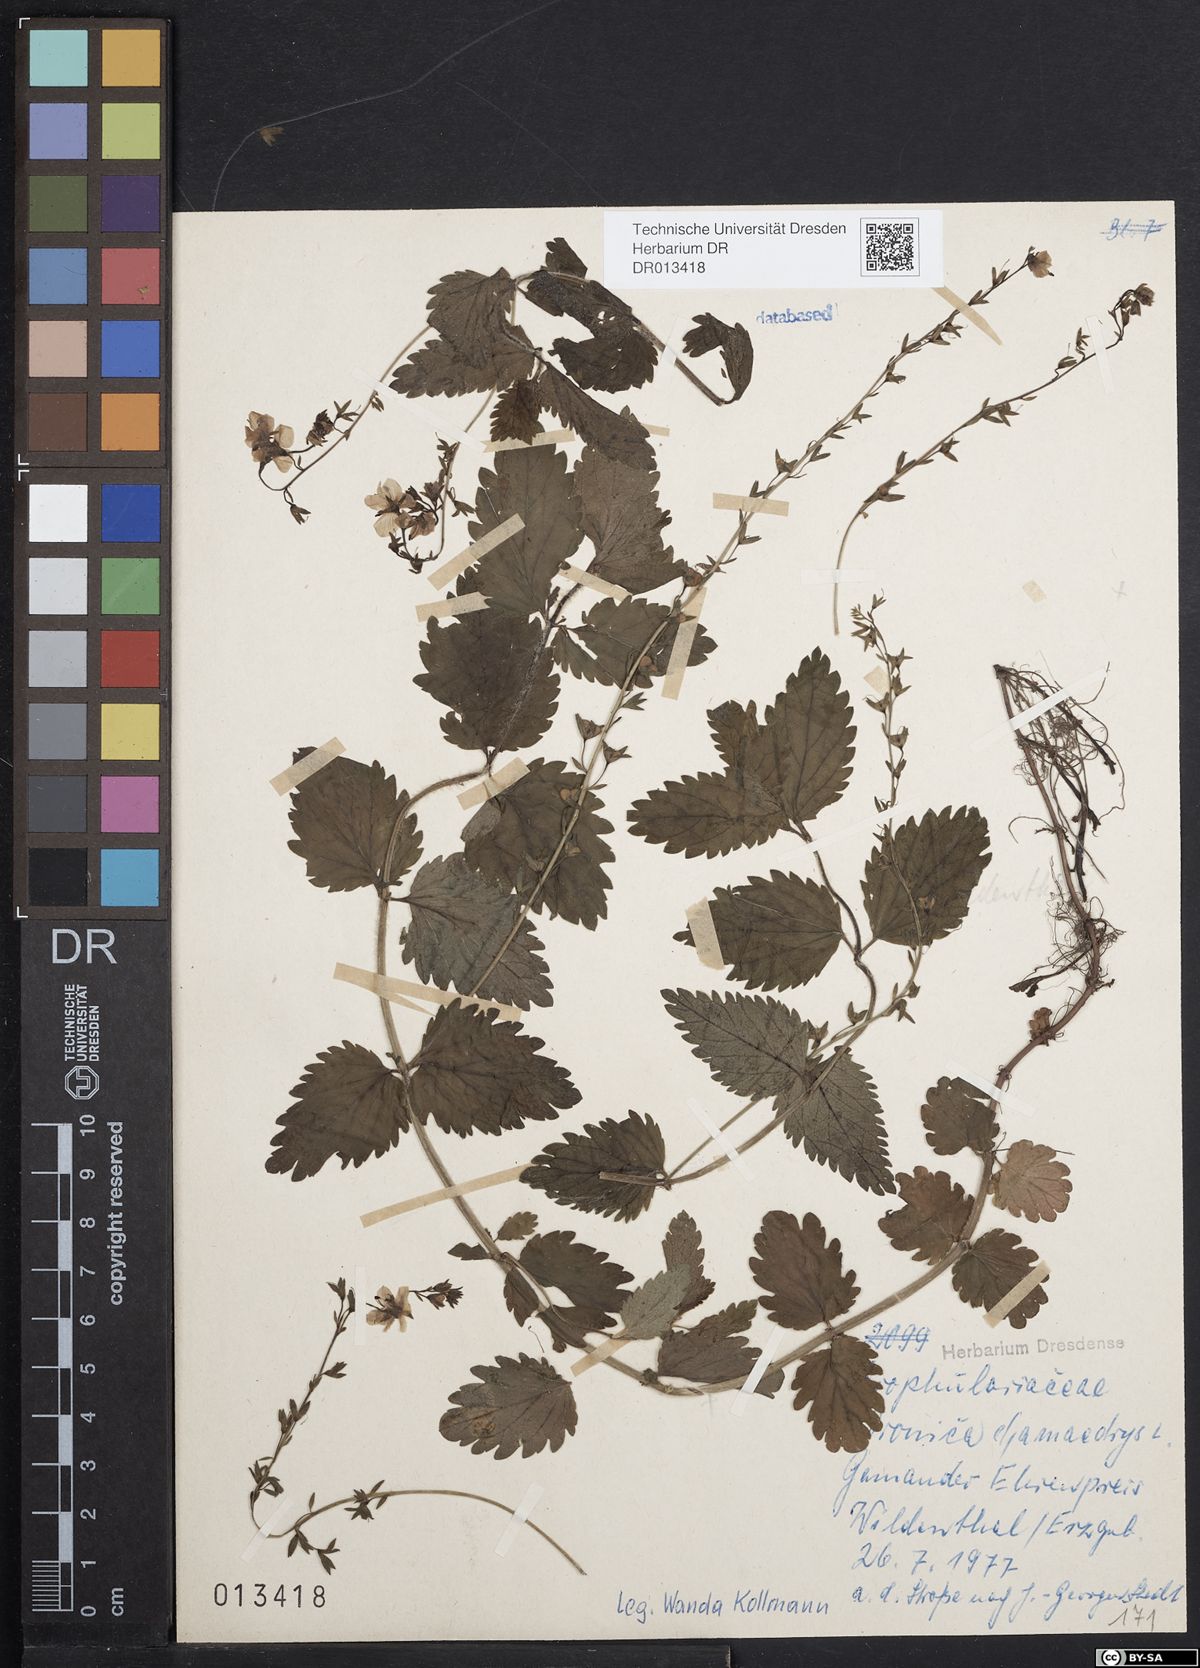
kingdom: Plantae
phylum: Tracheophyta
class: Magnoliopsida
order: Lamiales
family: Plantaginaceae
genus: Veronica
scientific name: Veronica chamaedrys
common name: Germander speedwell
